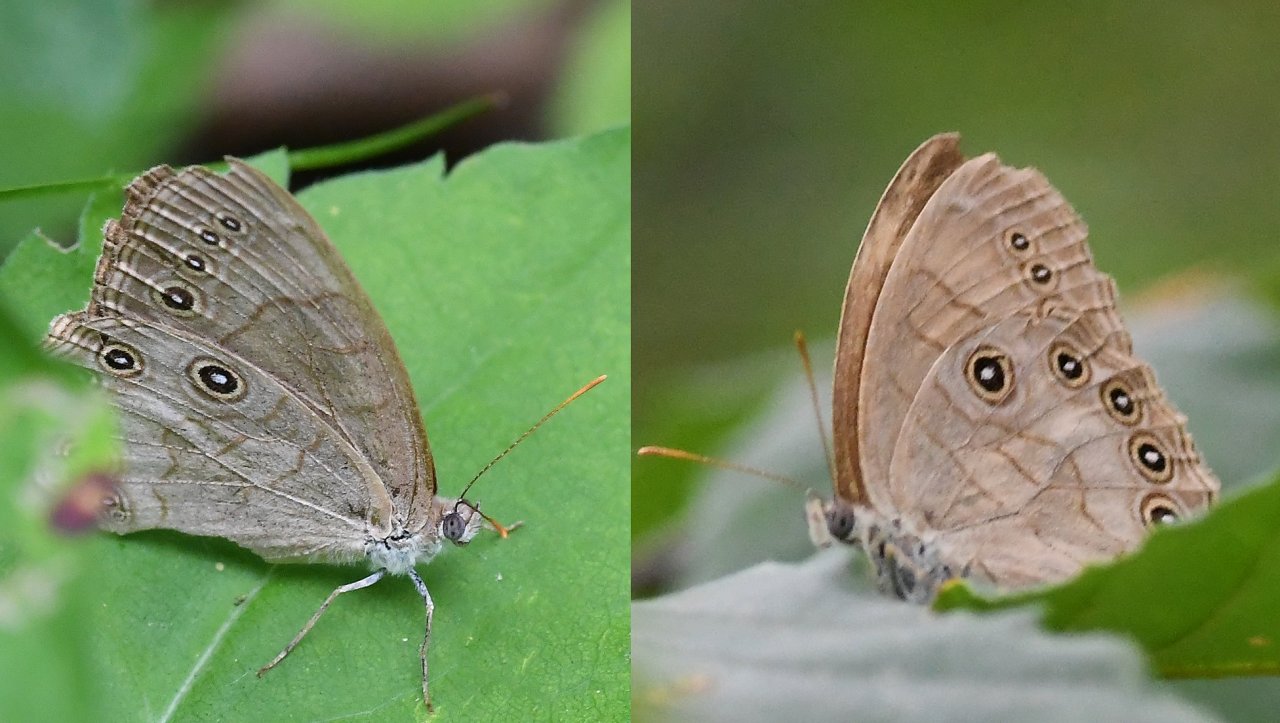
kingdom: Animalia
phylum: Arthropoda
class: Insecta
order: Lepidoptera
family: Nymphalidae
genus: Lethe
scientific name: Lethe eurydice
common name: Appalachian Eyed Brown
